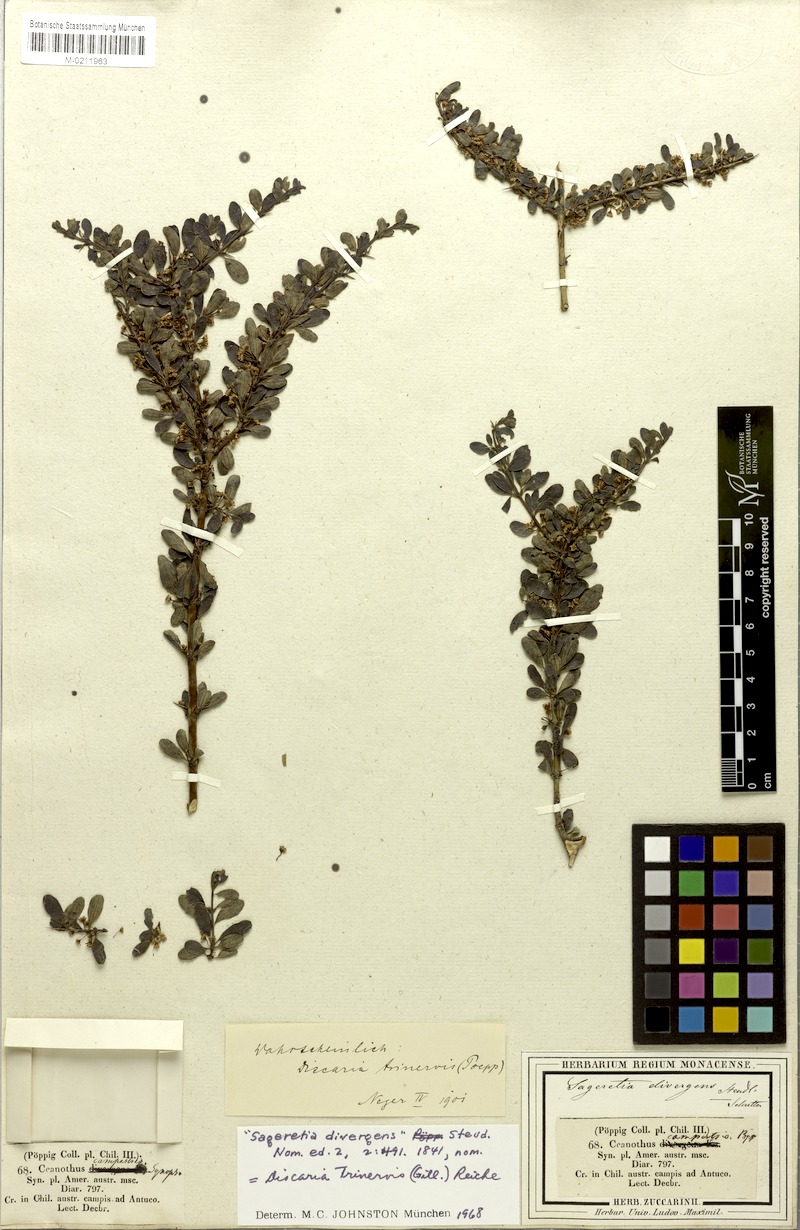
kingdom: Plantae
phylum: Tracheophyta
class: Magnoliopsida
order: Rosales
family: Rhamnaceae
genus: Ochetophila
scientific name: Ochetophila trinervis
